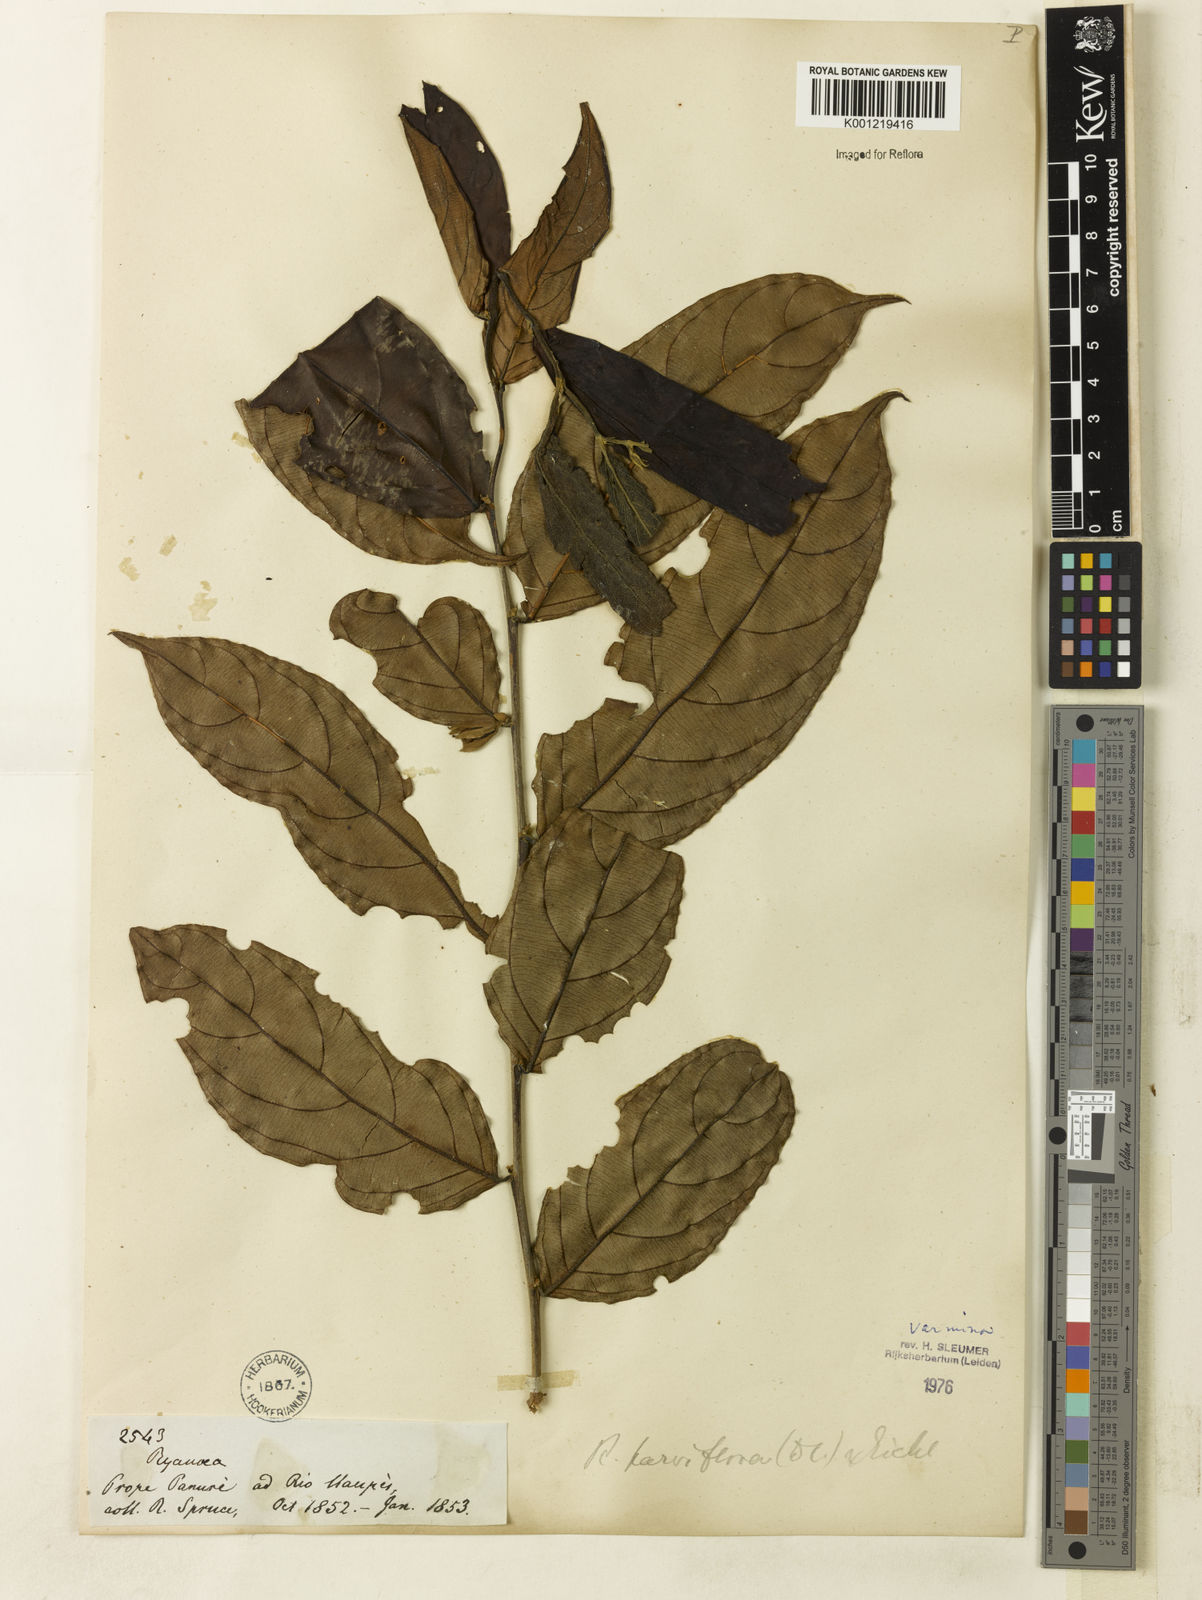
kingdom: Plantae
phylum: Tracheophyta
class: Magnoliopsida
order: Malpighiales
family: Salicaceae
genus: Ryania
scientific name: Ryania speciosa
